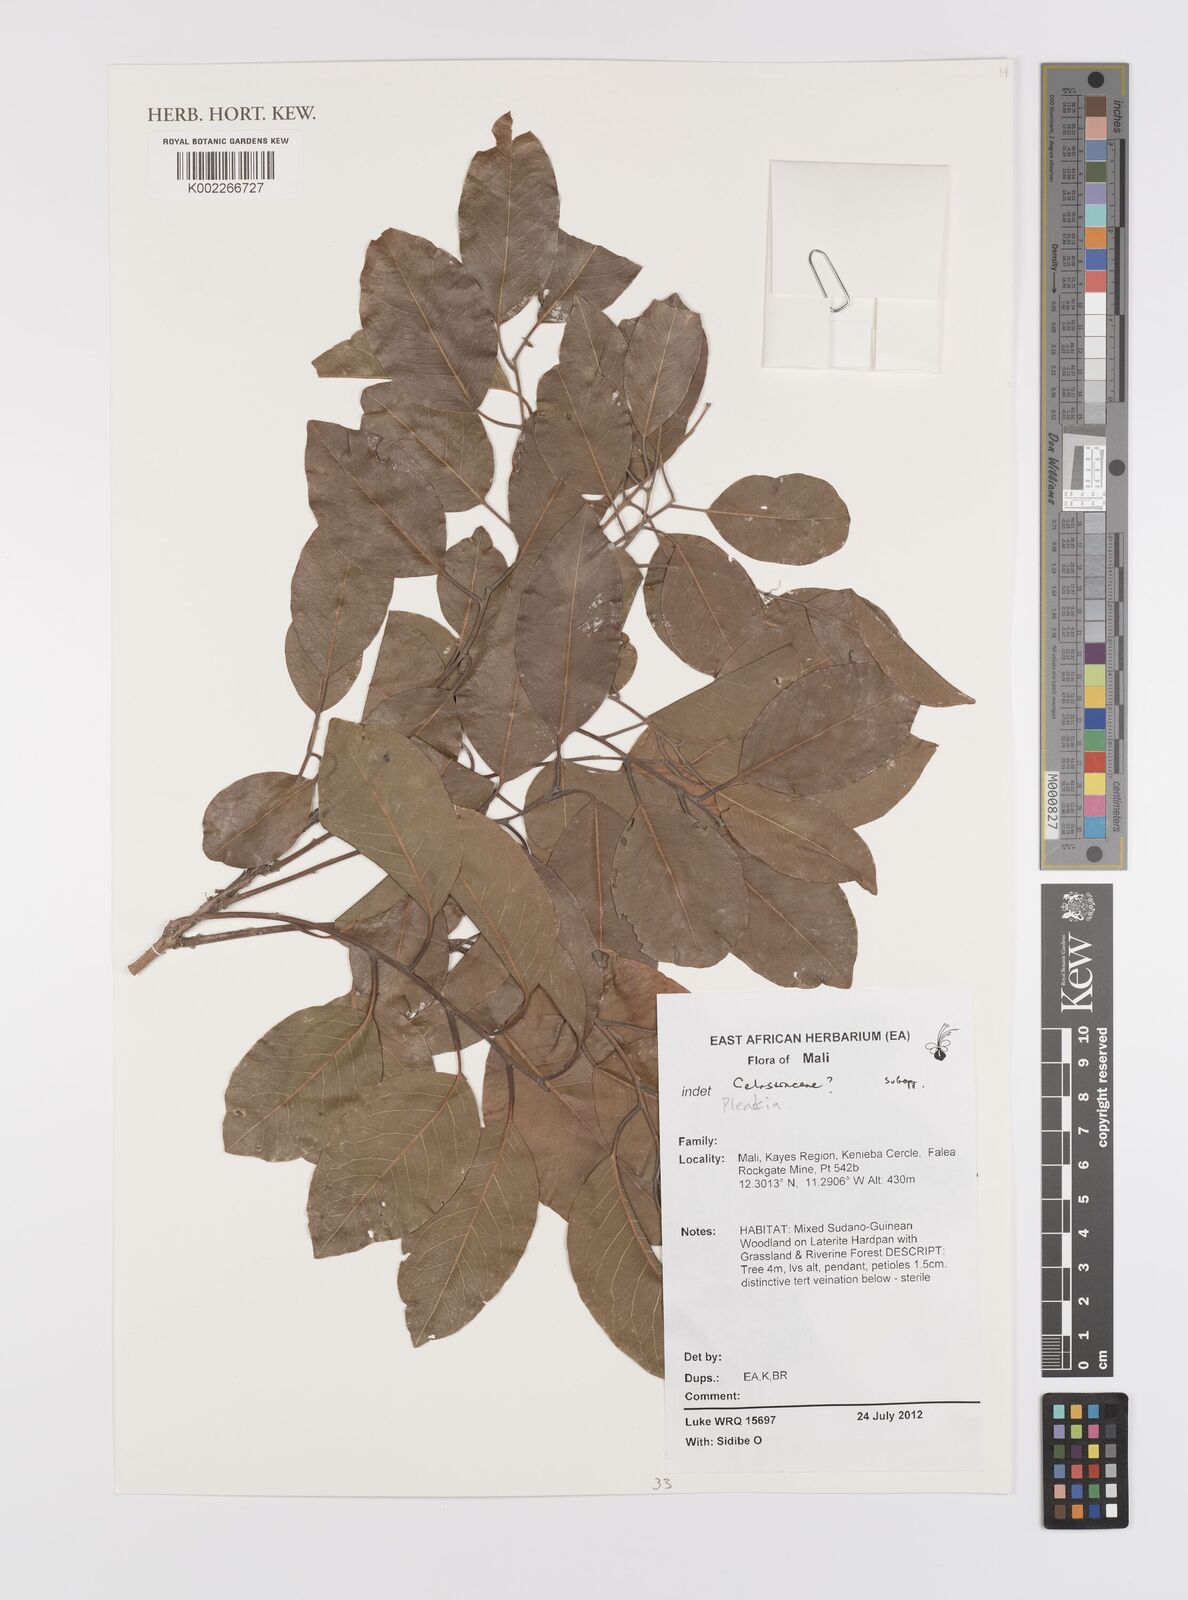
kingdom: Plantae
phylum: Tracheophyta
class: Magnoliopsida
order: Celastrales
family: Celastraceae
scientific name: Celastraceae
